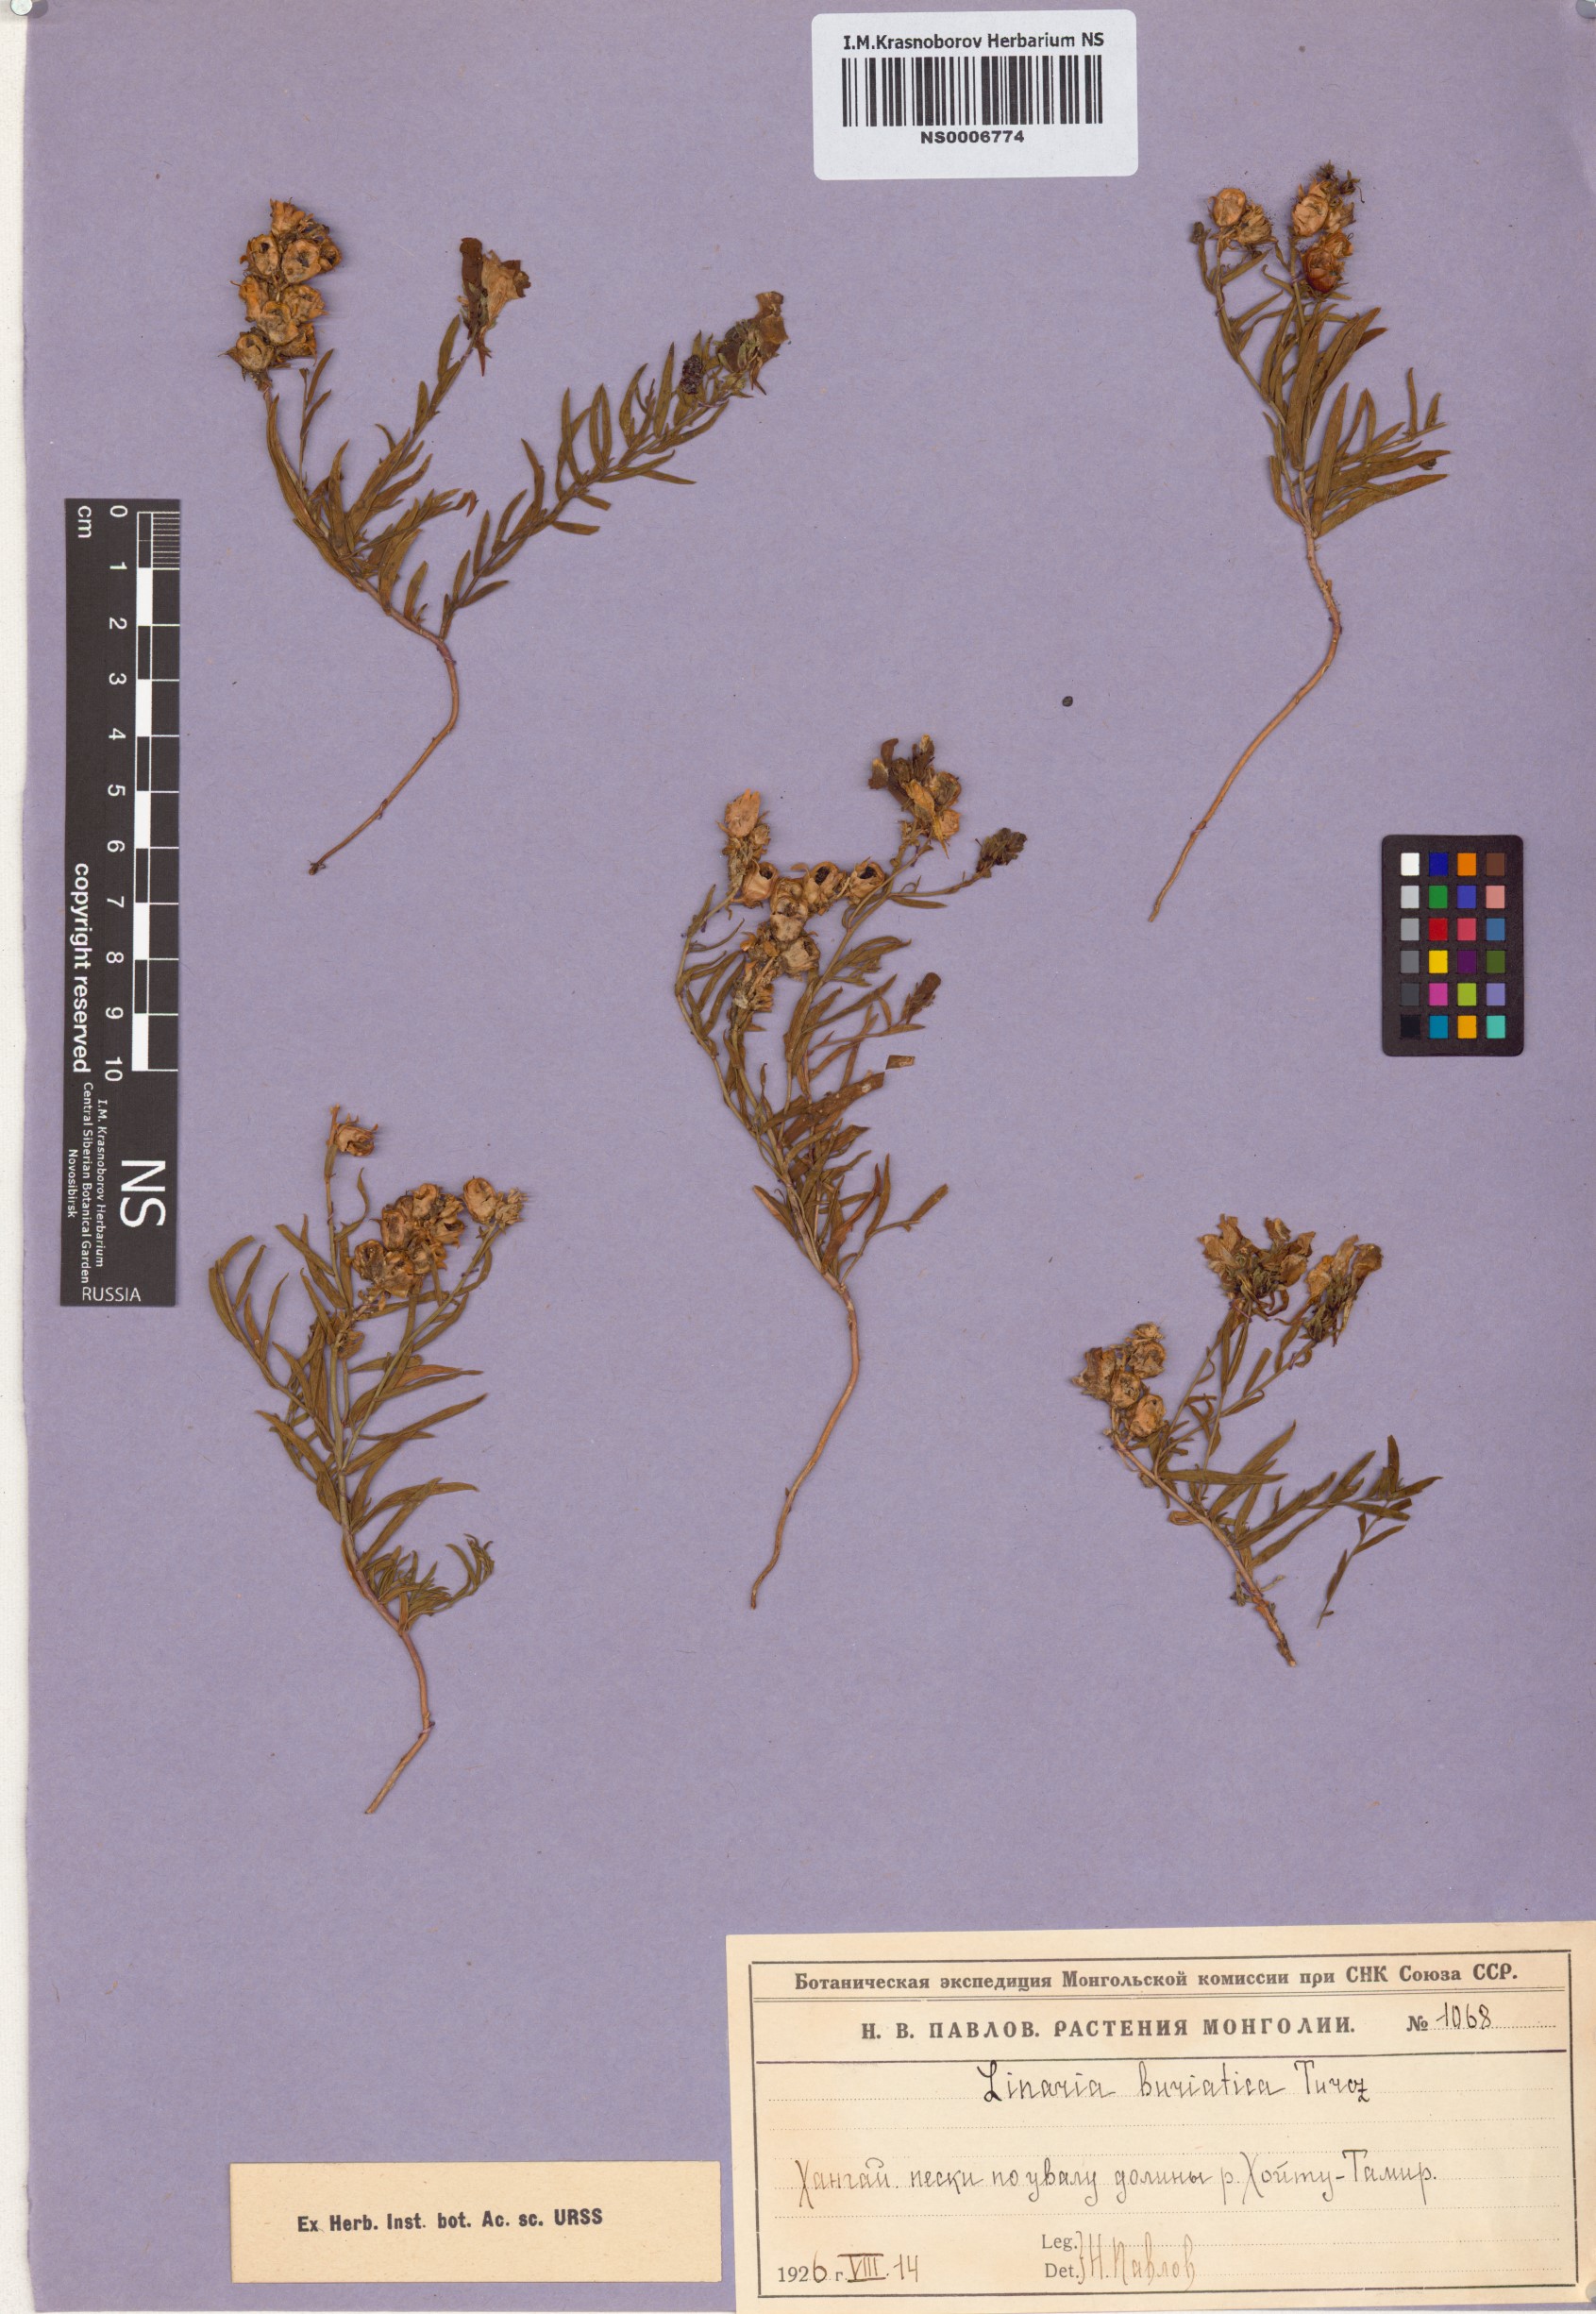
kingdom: Plantae
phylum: Tracheophyta
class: Magnoliopsida
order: Lamiales
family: Plantaginaceae
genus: Linaria
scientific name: Linaria buriatica
